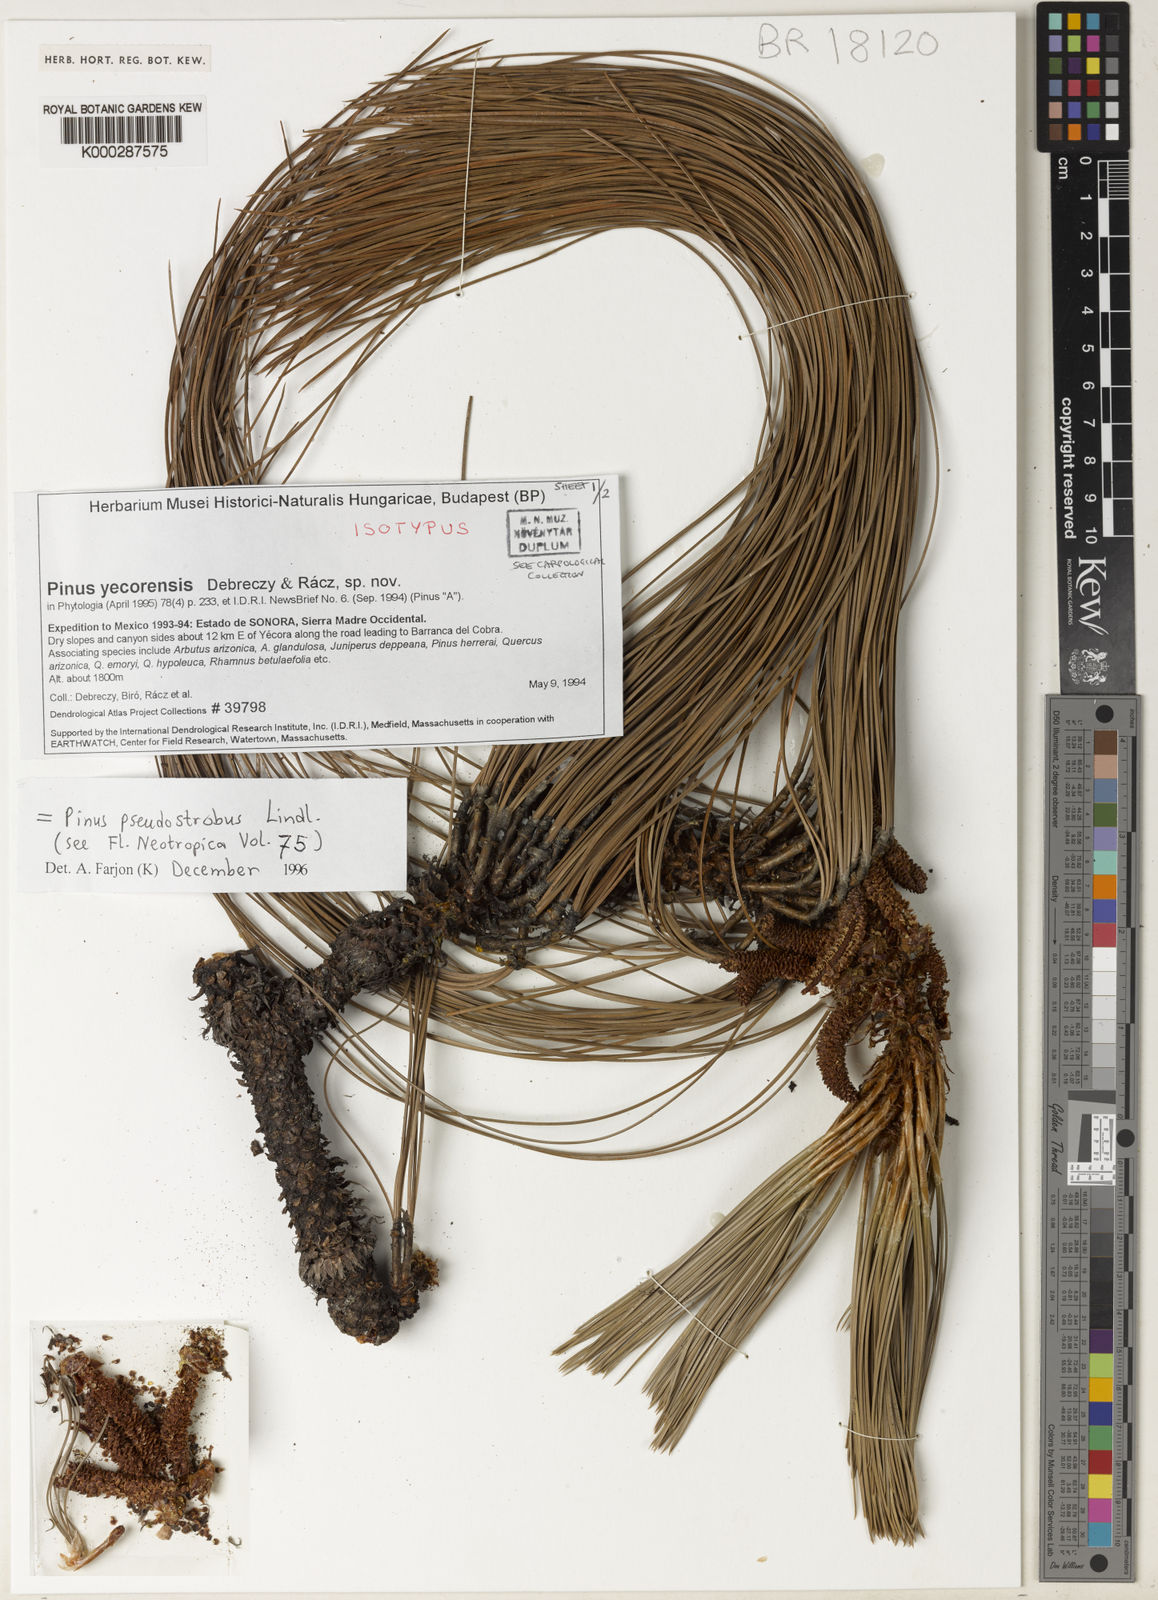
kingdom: Plantae
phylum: Tracheophyta
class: Pinopsida
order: Pinales
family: Pinaceae
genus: Pinus
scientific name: Pinus pseudostrobus
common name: False weymouth pine
